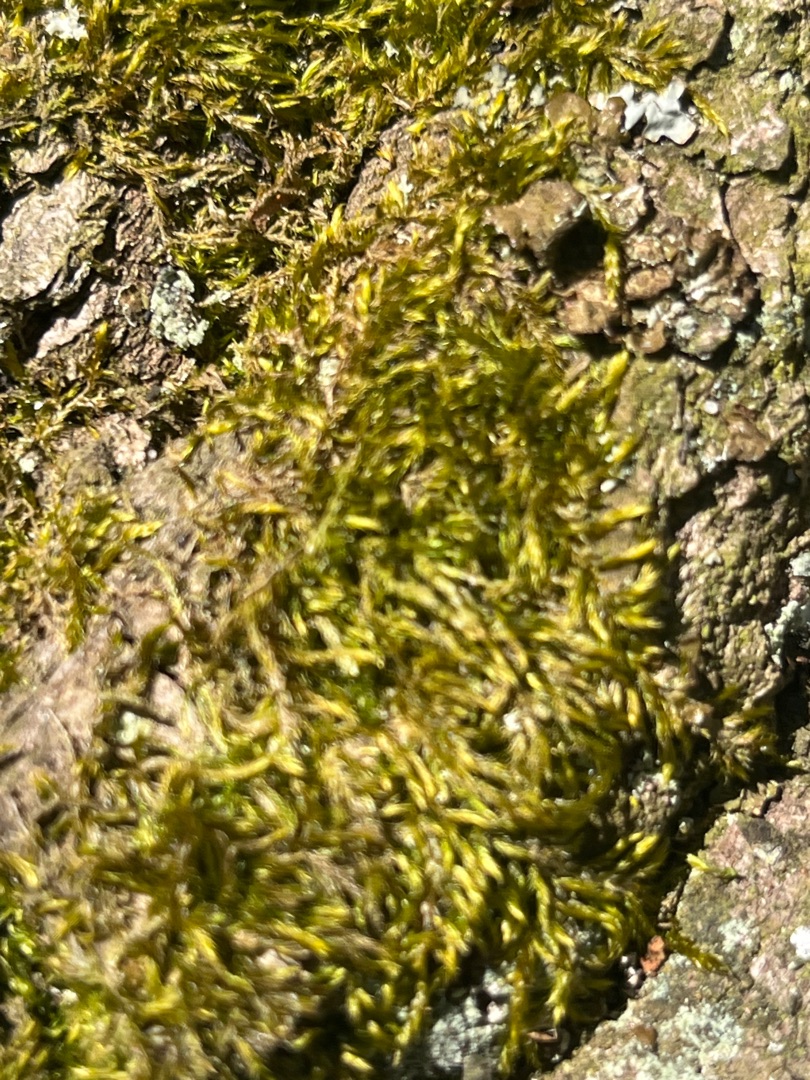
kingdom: Plantae
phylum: Bryophyta
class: Bryopsida
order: Hypnales
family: Hypnaceae
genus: Hypnum
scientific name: Hypnum cupressiforme
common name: Almindelig cypresmos
